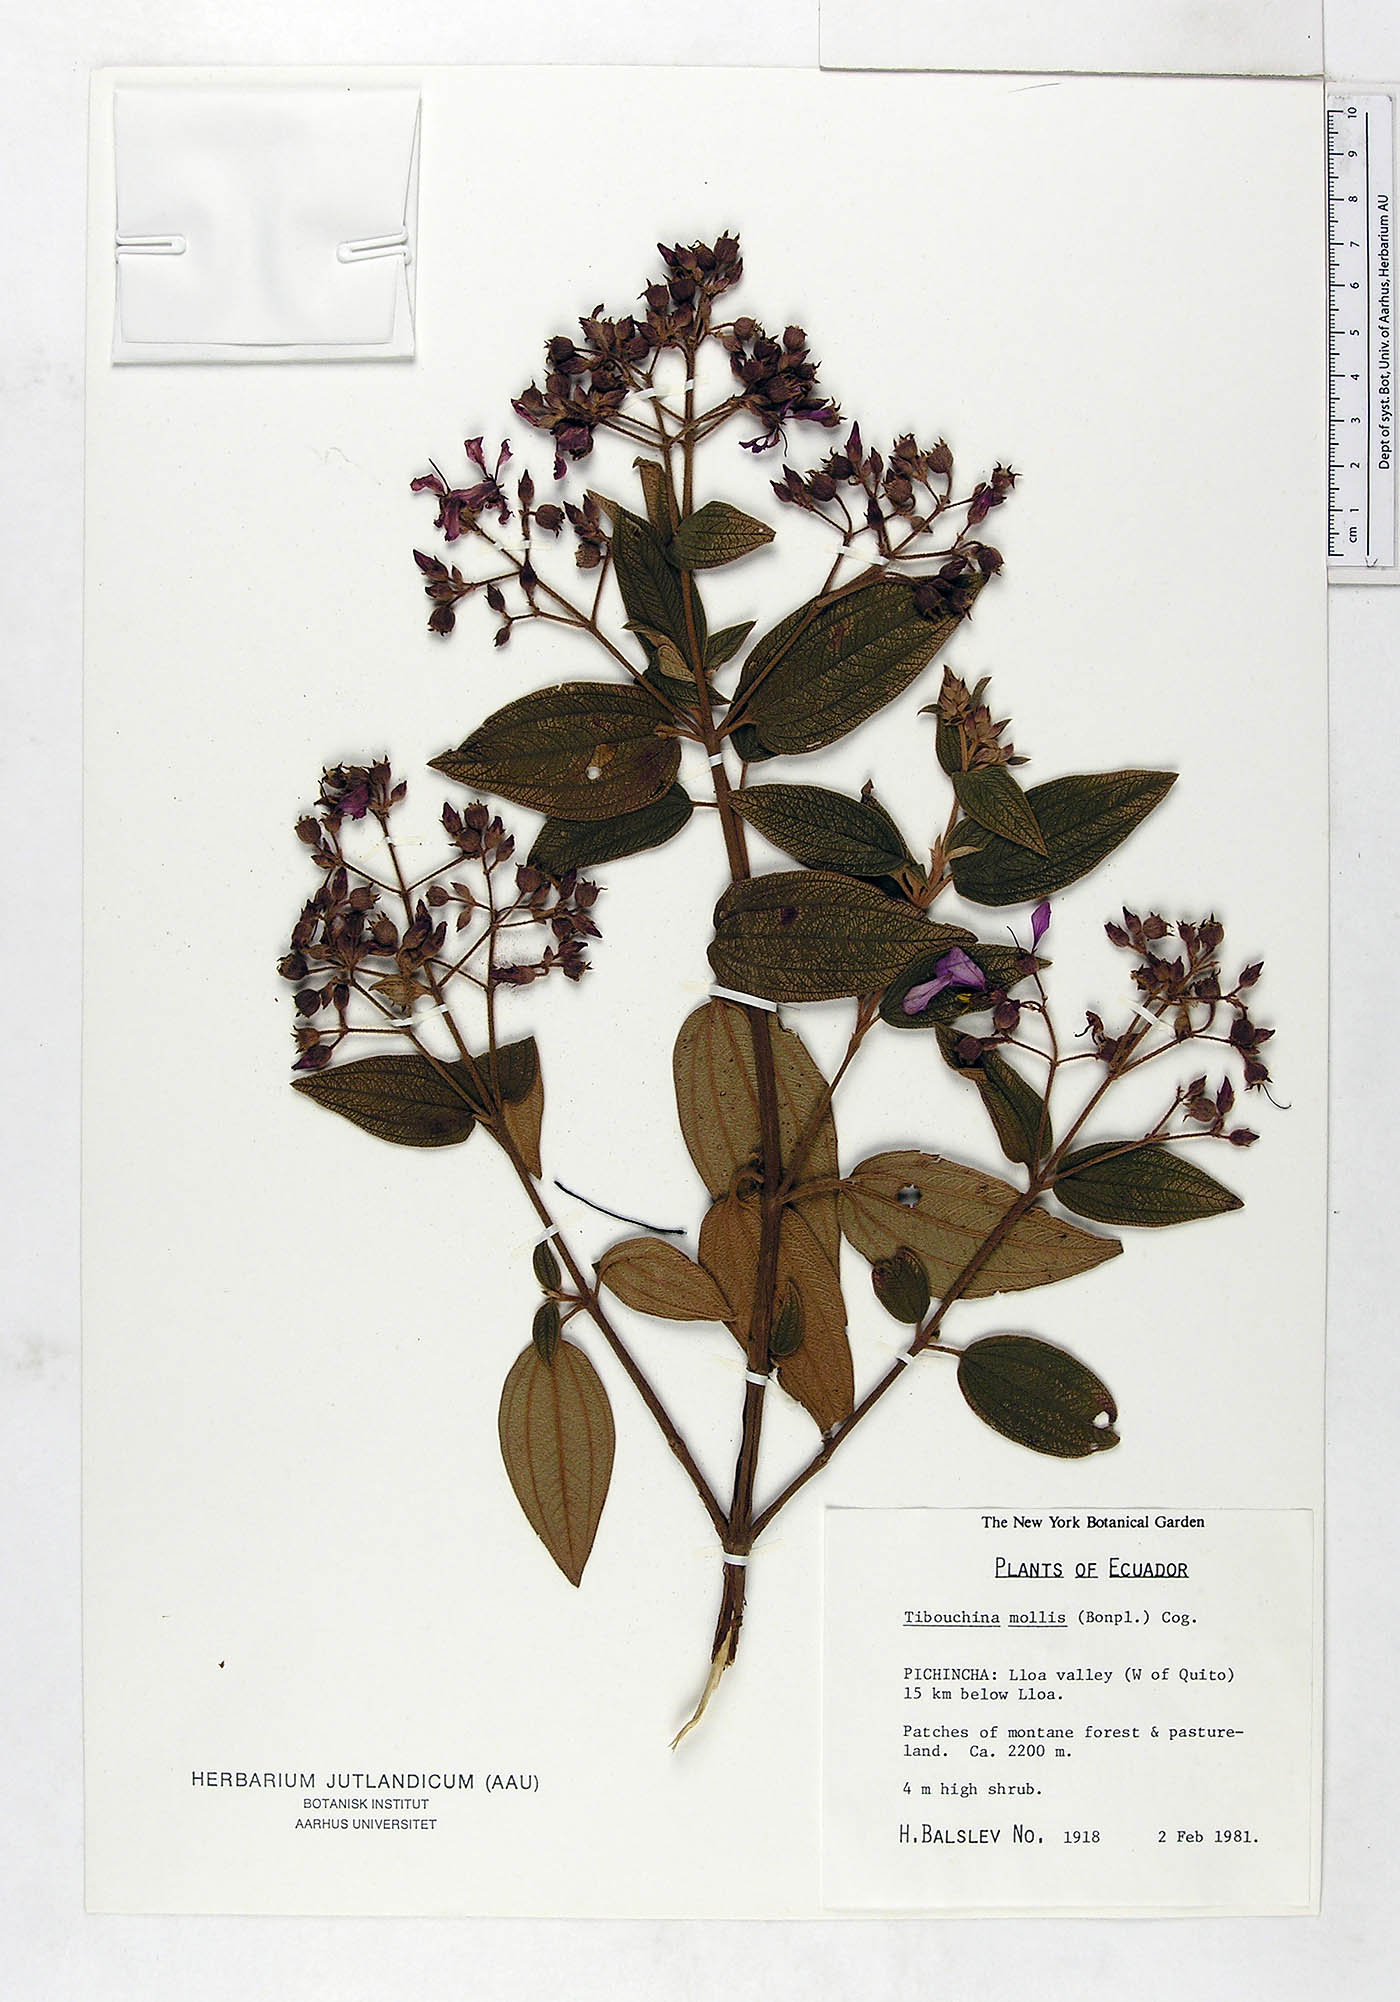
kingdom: Plantae
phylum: Tracheophyta
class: Magnoliopsida
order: Myrtales
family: Melastomataceae
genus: Chaetogastra
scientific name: Chaetogastra mollis
